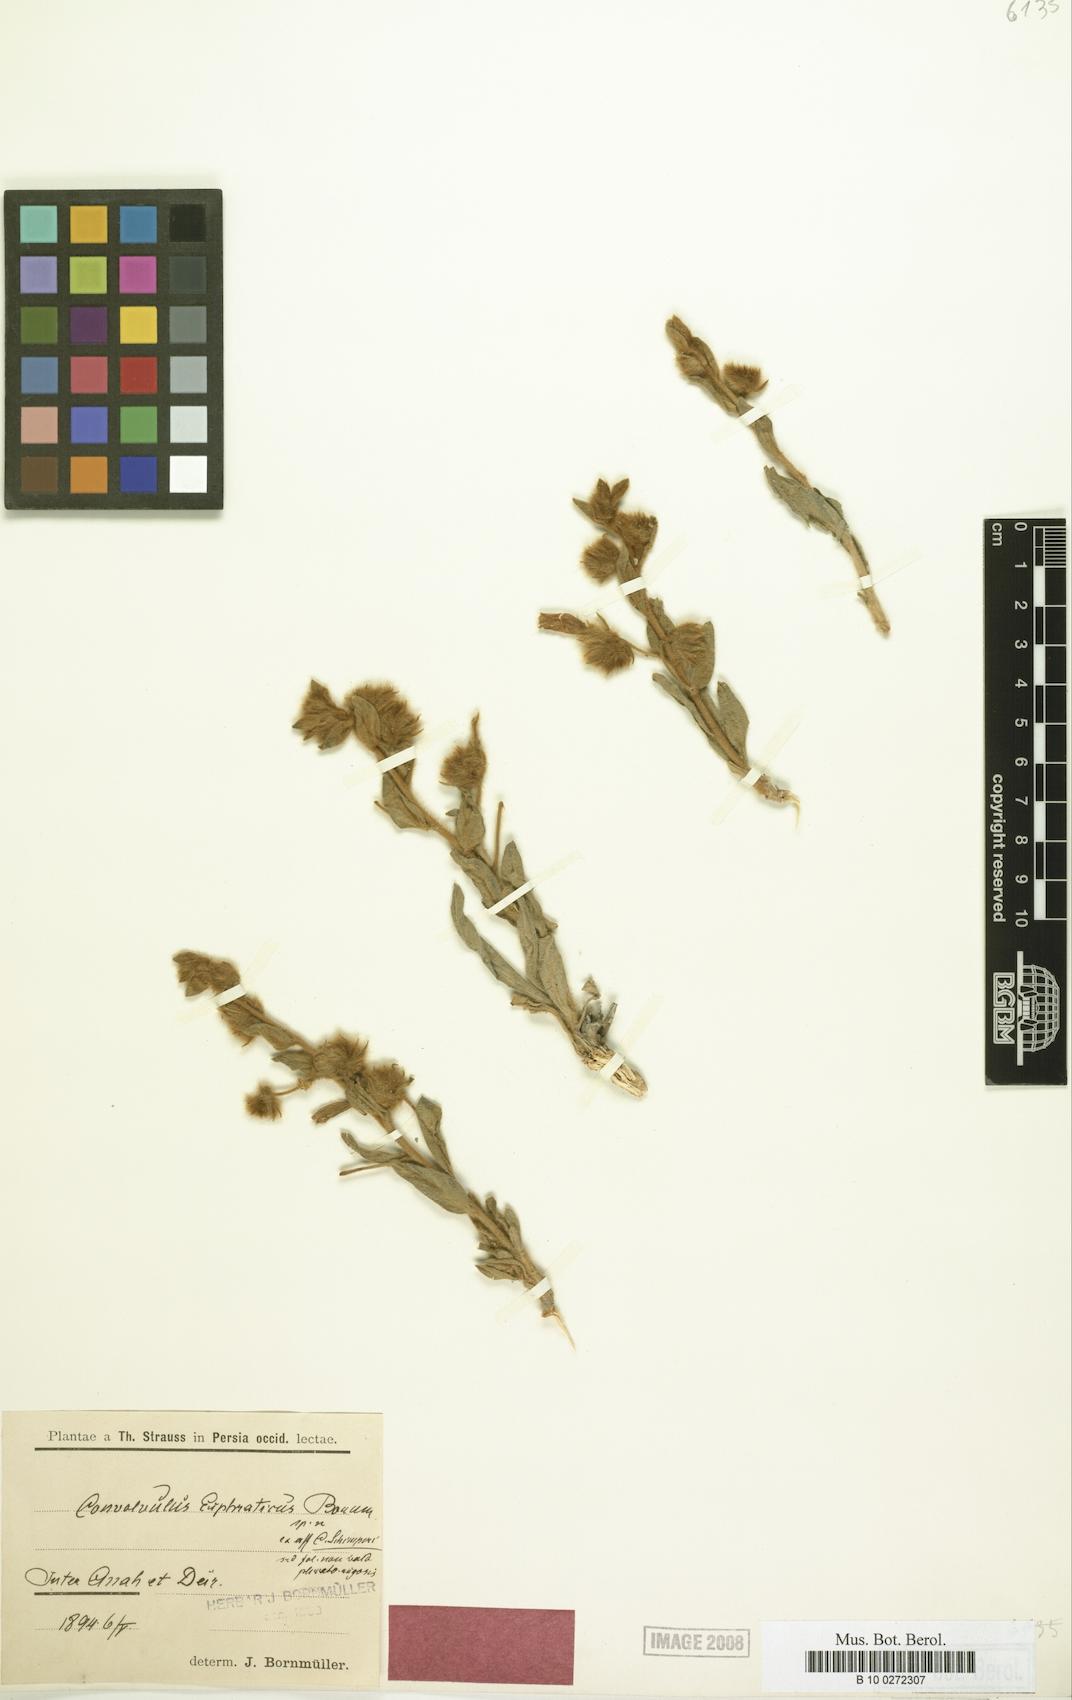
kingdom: Plantae
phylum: Tracheophyta
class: Magnoliopsida
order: Solanales
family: Convolvulaceae
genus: Convolvulus
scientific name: Convolvulus euphraticus
